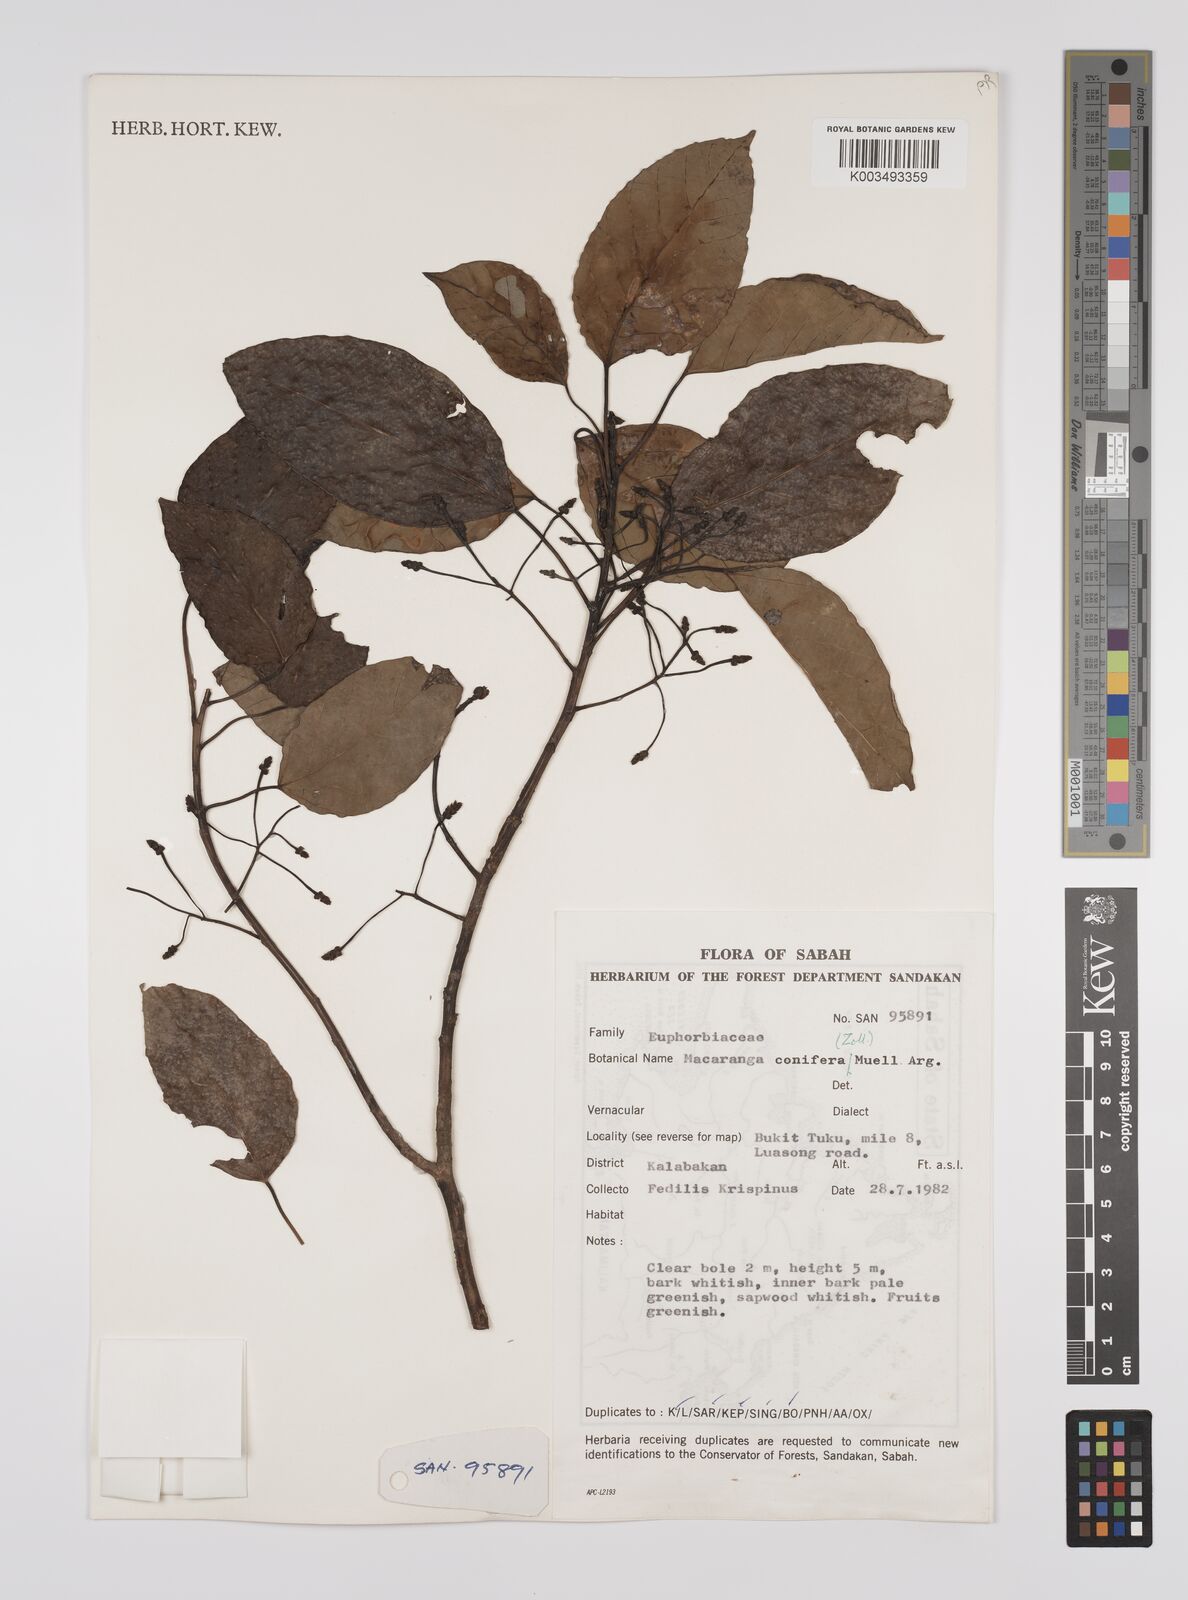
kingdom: Plantae
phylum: Tracheophyta
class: Magnoliopsida
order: Malpighiales
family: Euphorbiaceae
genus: Macaranga
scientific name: Macaranga conifera
